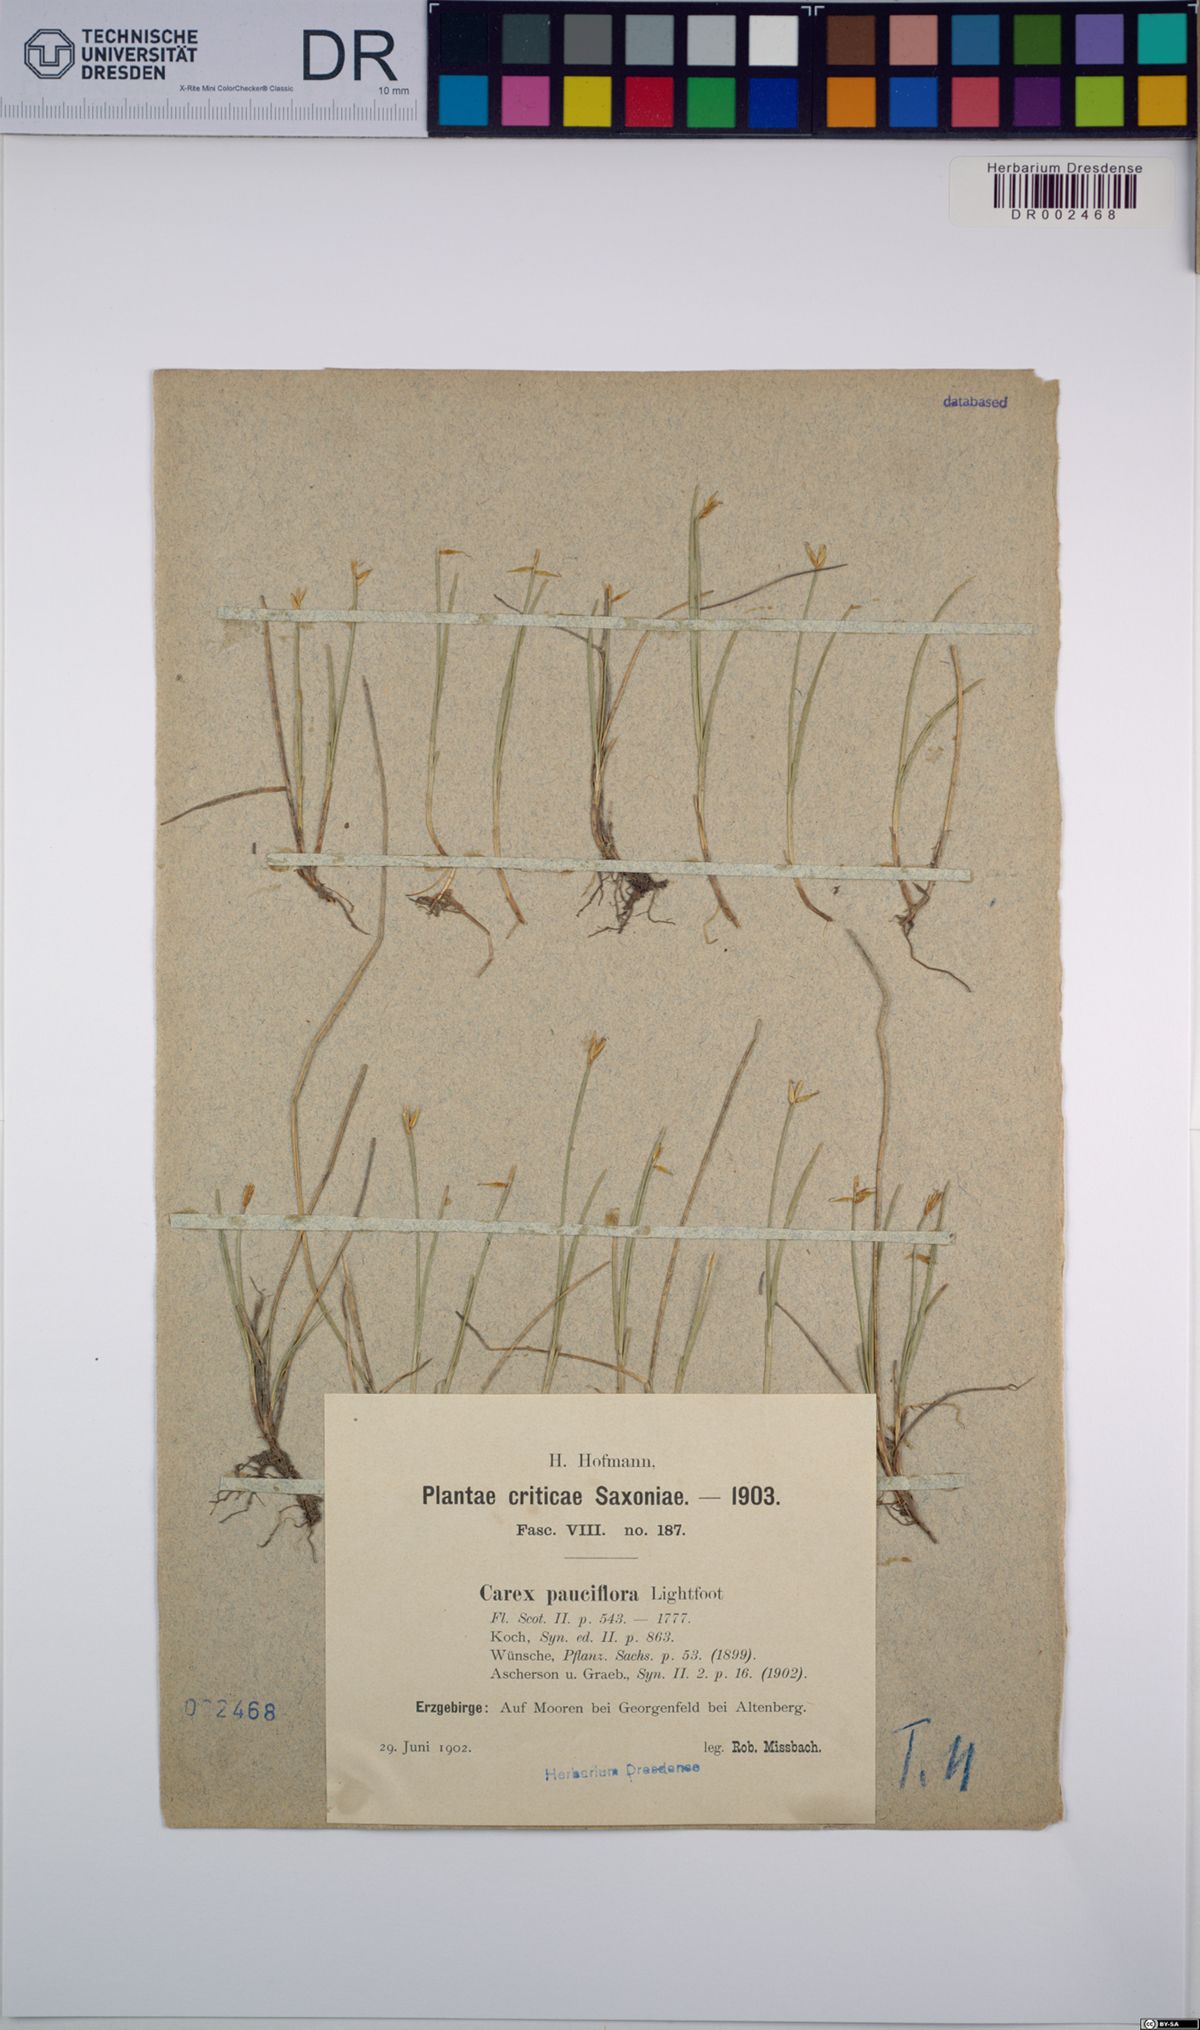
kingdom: Plantae
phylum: Tracheophyta
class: Liliopsida
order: Poales
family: Cyperaceae
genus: Carex
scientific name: Carex pauciflora
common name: Few-flowered sedge
